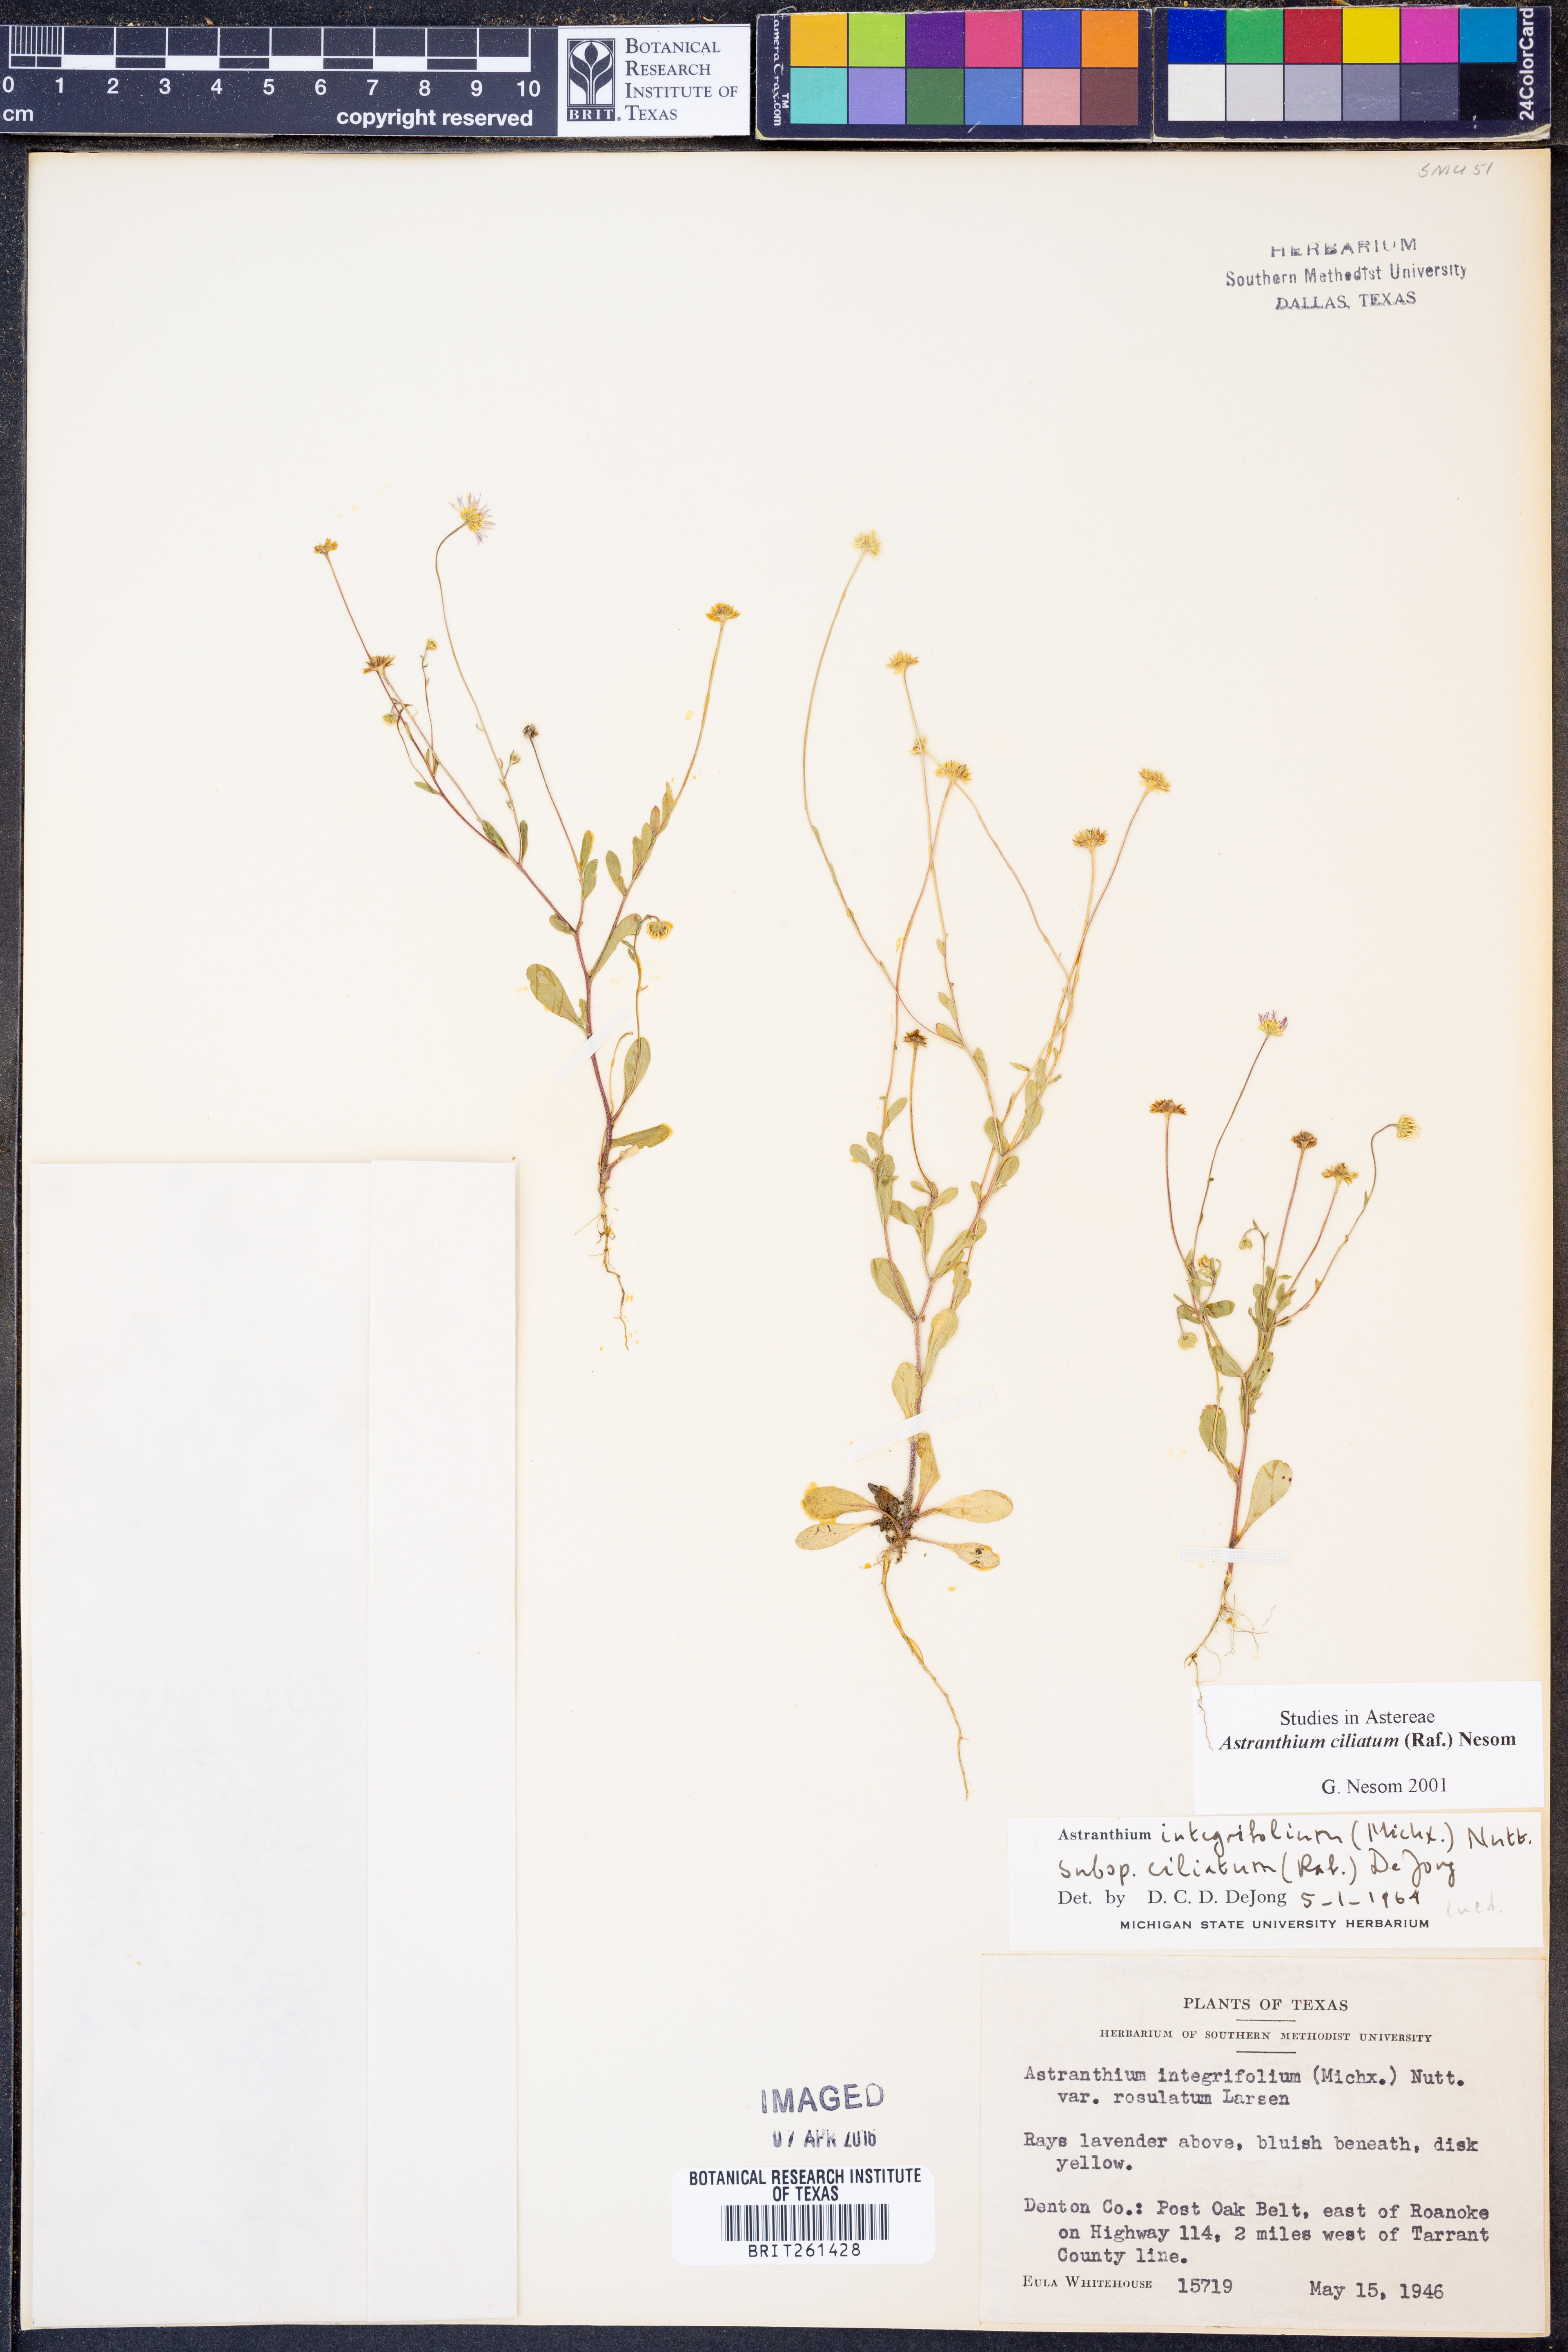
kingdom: Plantae
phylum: Tracheophyta
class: Magnoliopsida
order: Asterales
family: Asteraceae
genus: Astranthium
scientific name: Astranthium ciliatum
